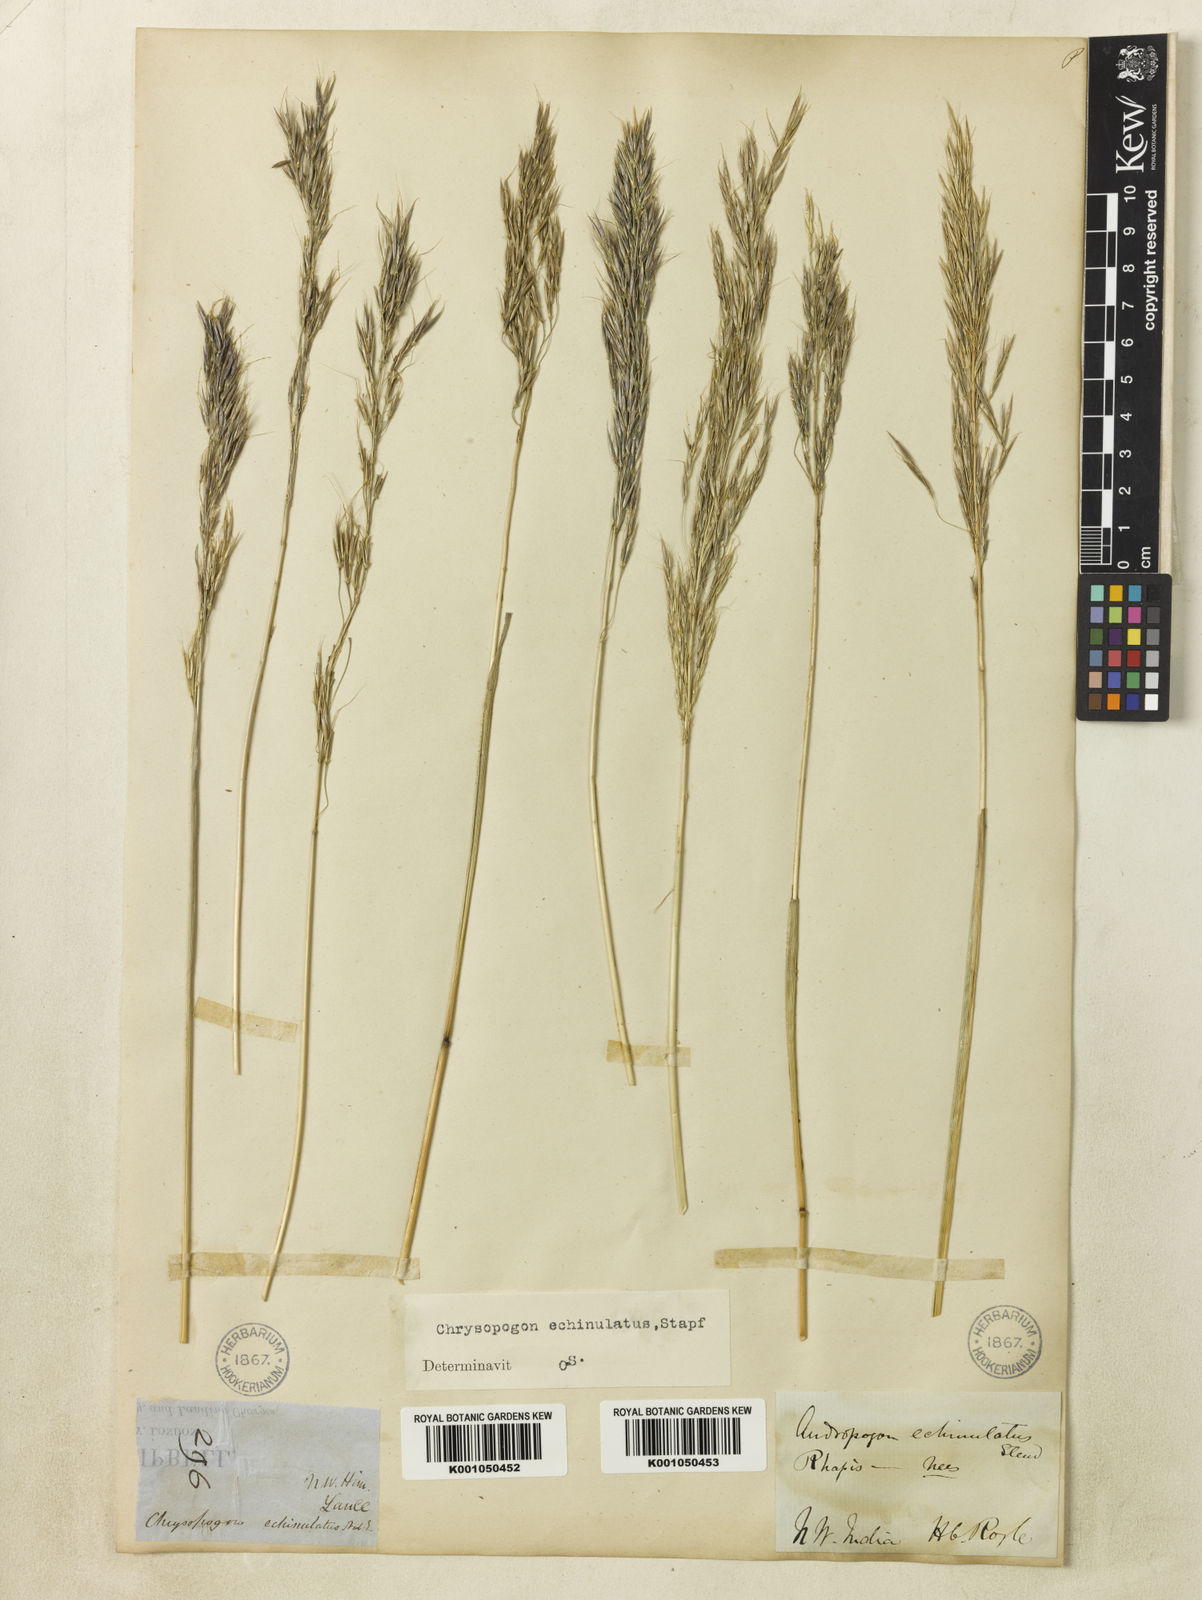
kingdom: Plantae
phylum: Tracheophyta
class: Liliopsida
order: Poales
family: Poaceae
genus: Chrysopogon
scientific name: Chrysopogon gryllus
